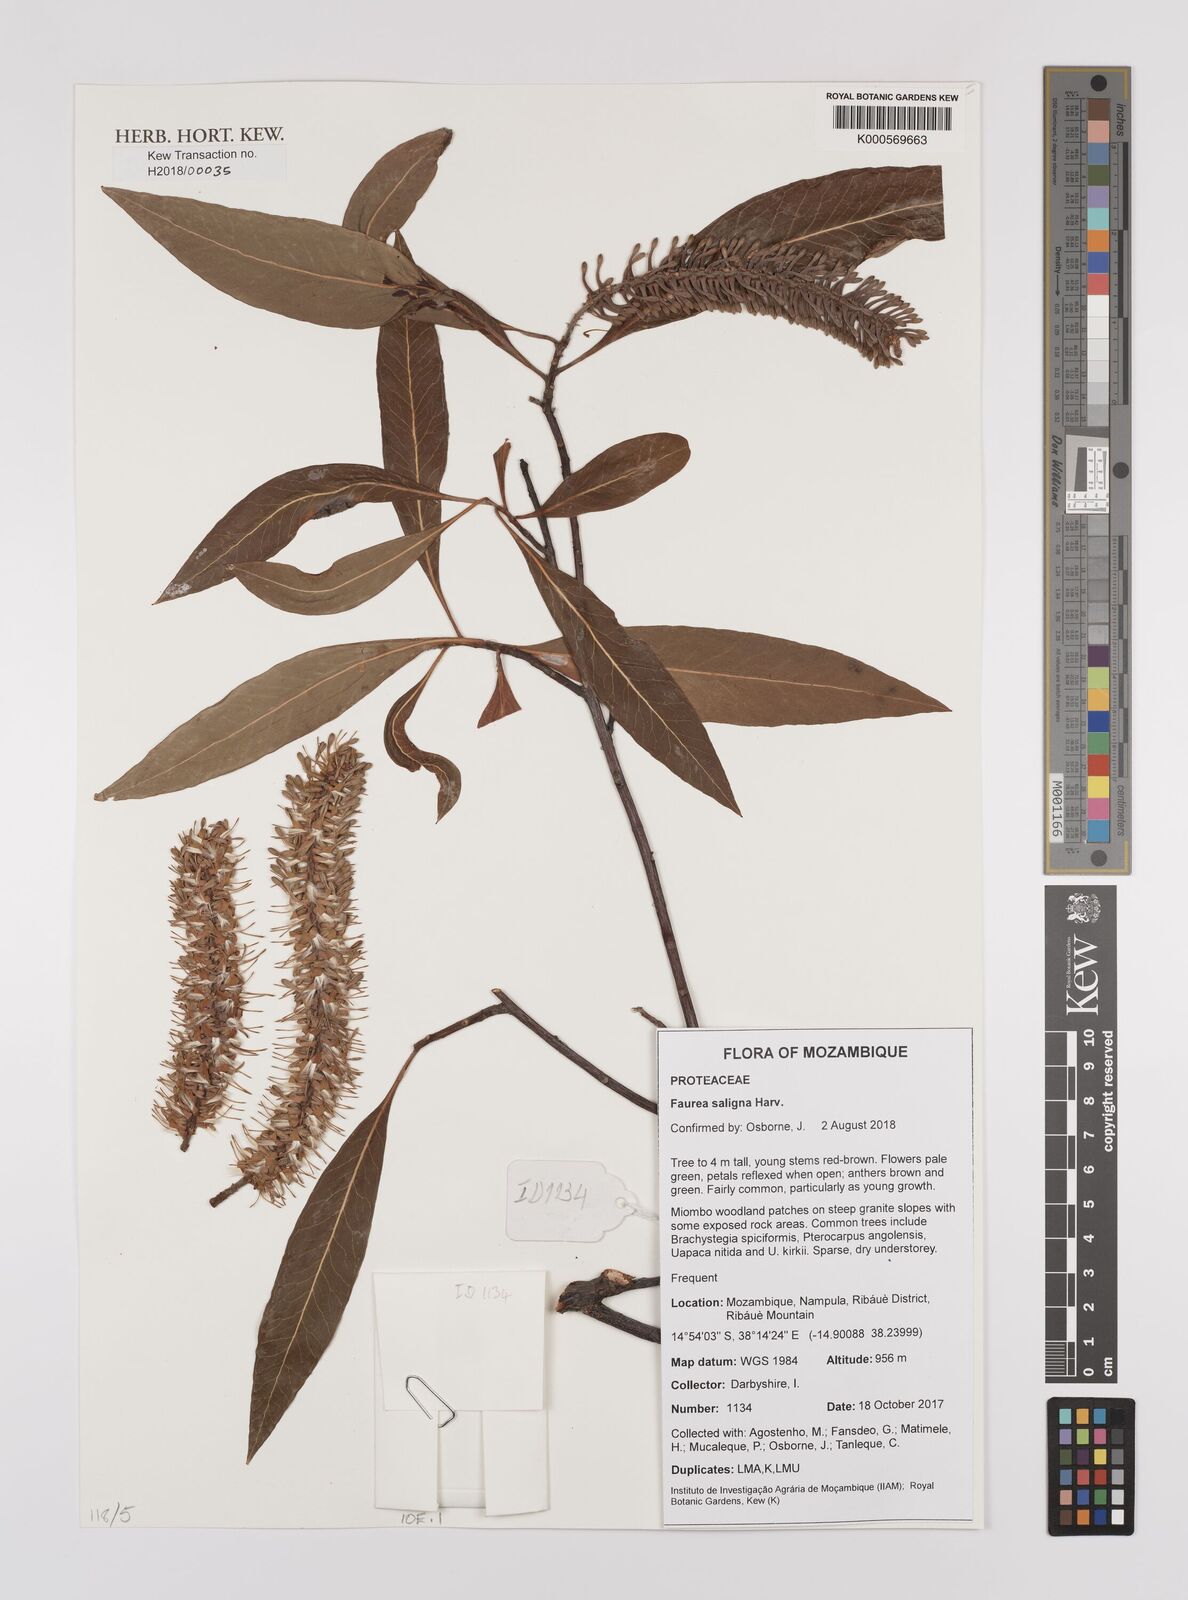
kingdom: Plantae
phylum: Tracheophyta
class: Magnoliopsida
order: Proteales
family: Proteaceae
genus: Faurea
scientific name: Faurea saligna
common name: African bean
